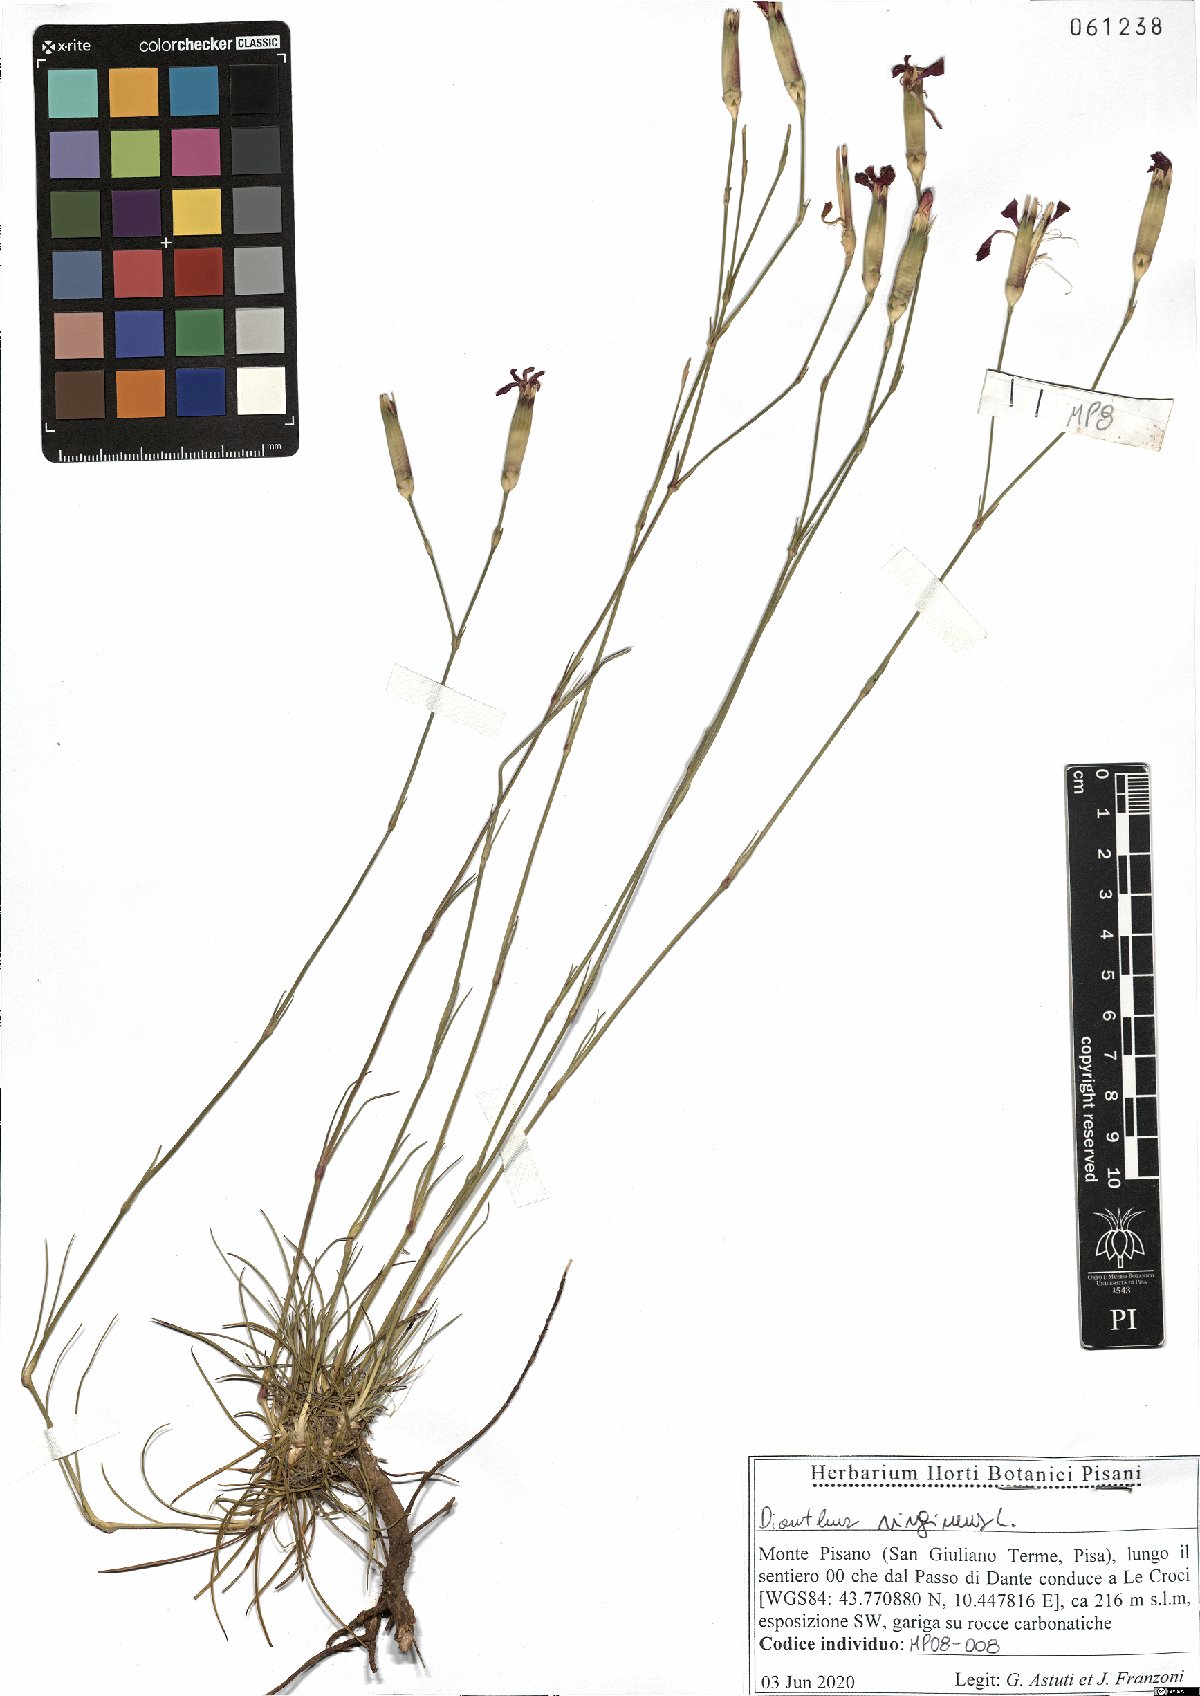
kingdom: Plantae
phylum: Tracheophyta
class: Magnoliopsida
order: Caryophyllales
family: Caryophyllaceae
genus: Dianthus
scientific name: Dianthus virgineus
